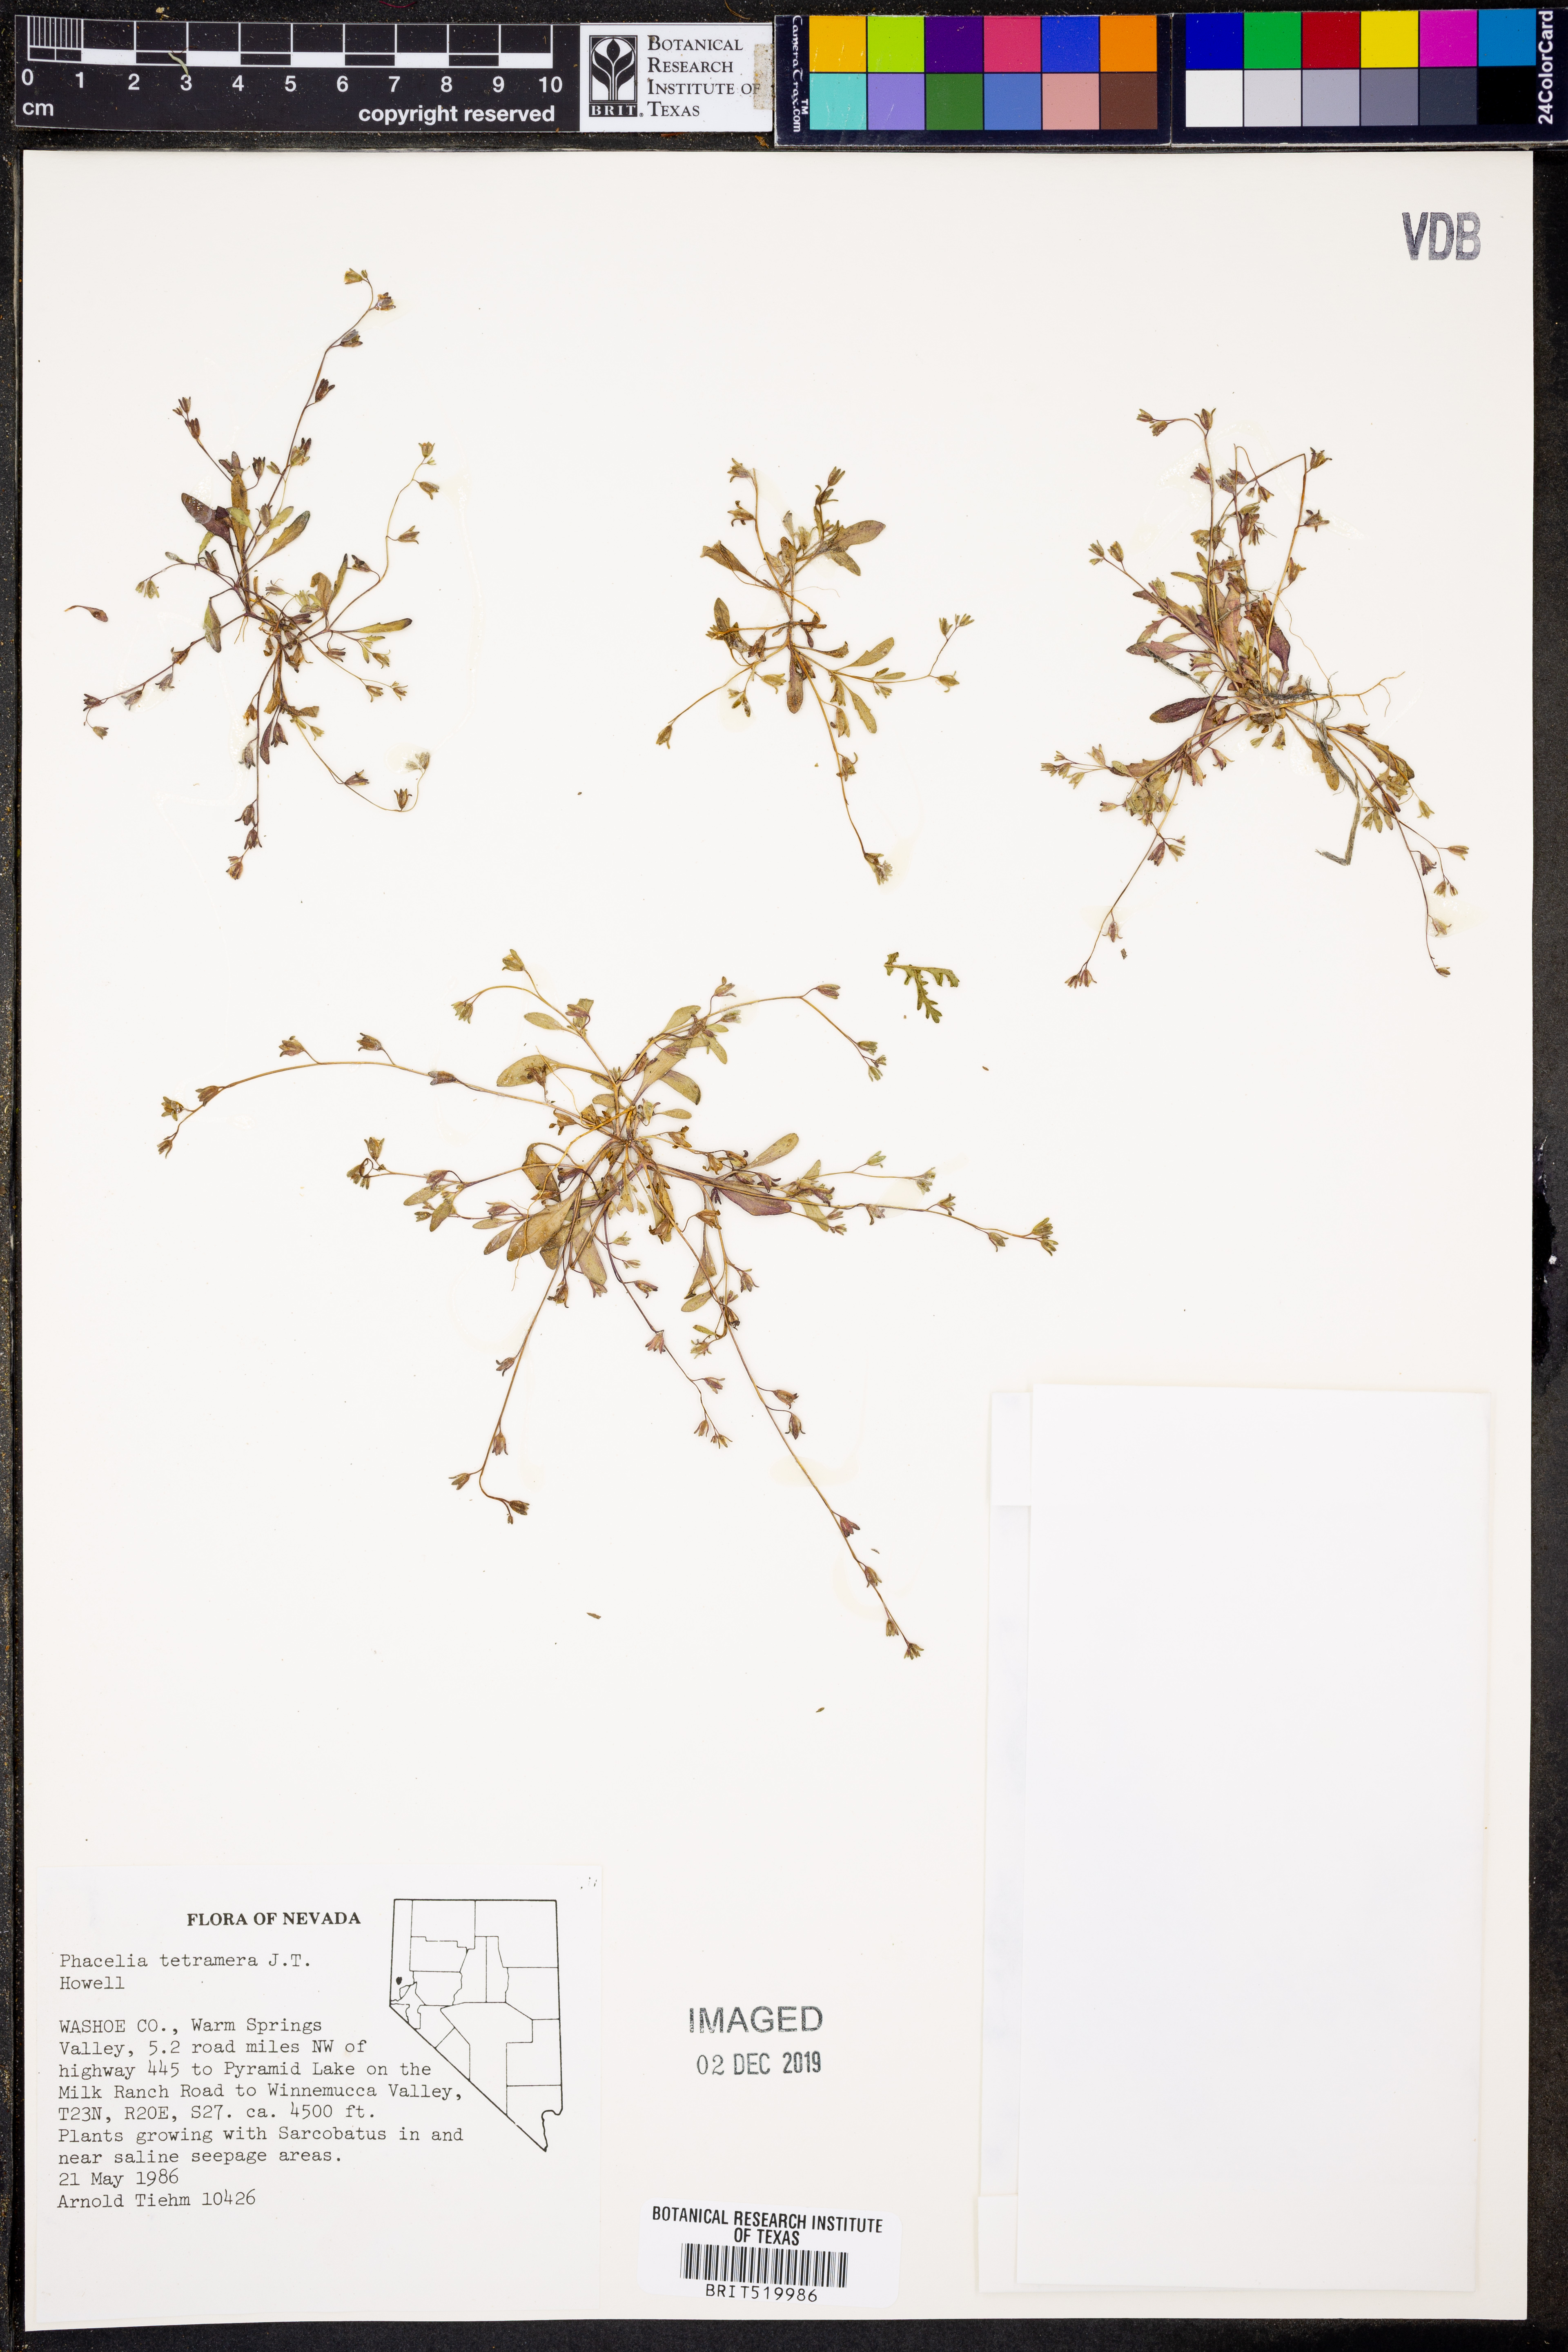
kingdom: Plantae
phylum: Tracheophyta
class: Magnoliopsida
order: Boraginales
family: Hydrophyllaceae
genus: Phacelia
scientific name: Phacelia tetramera
